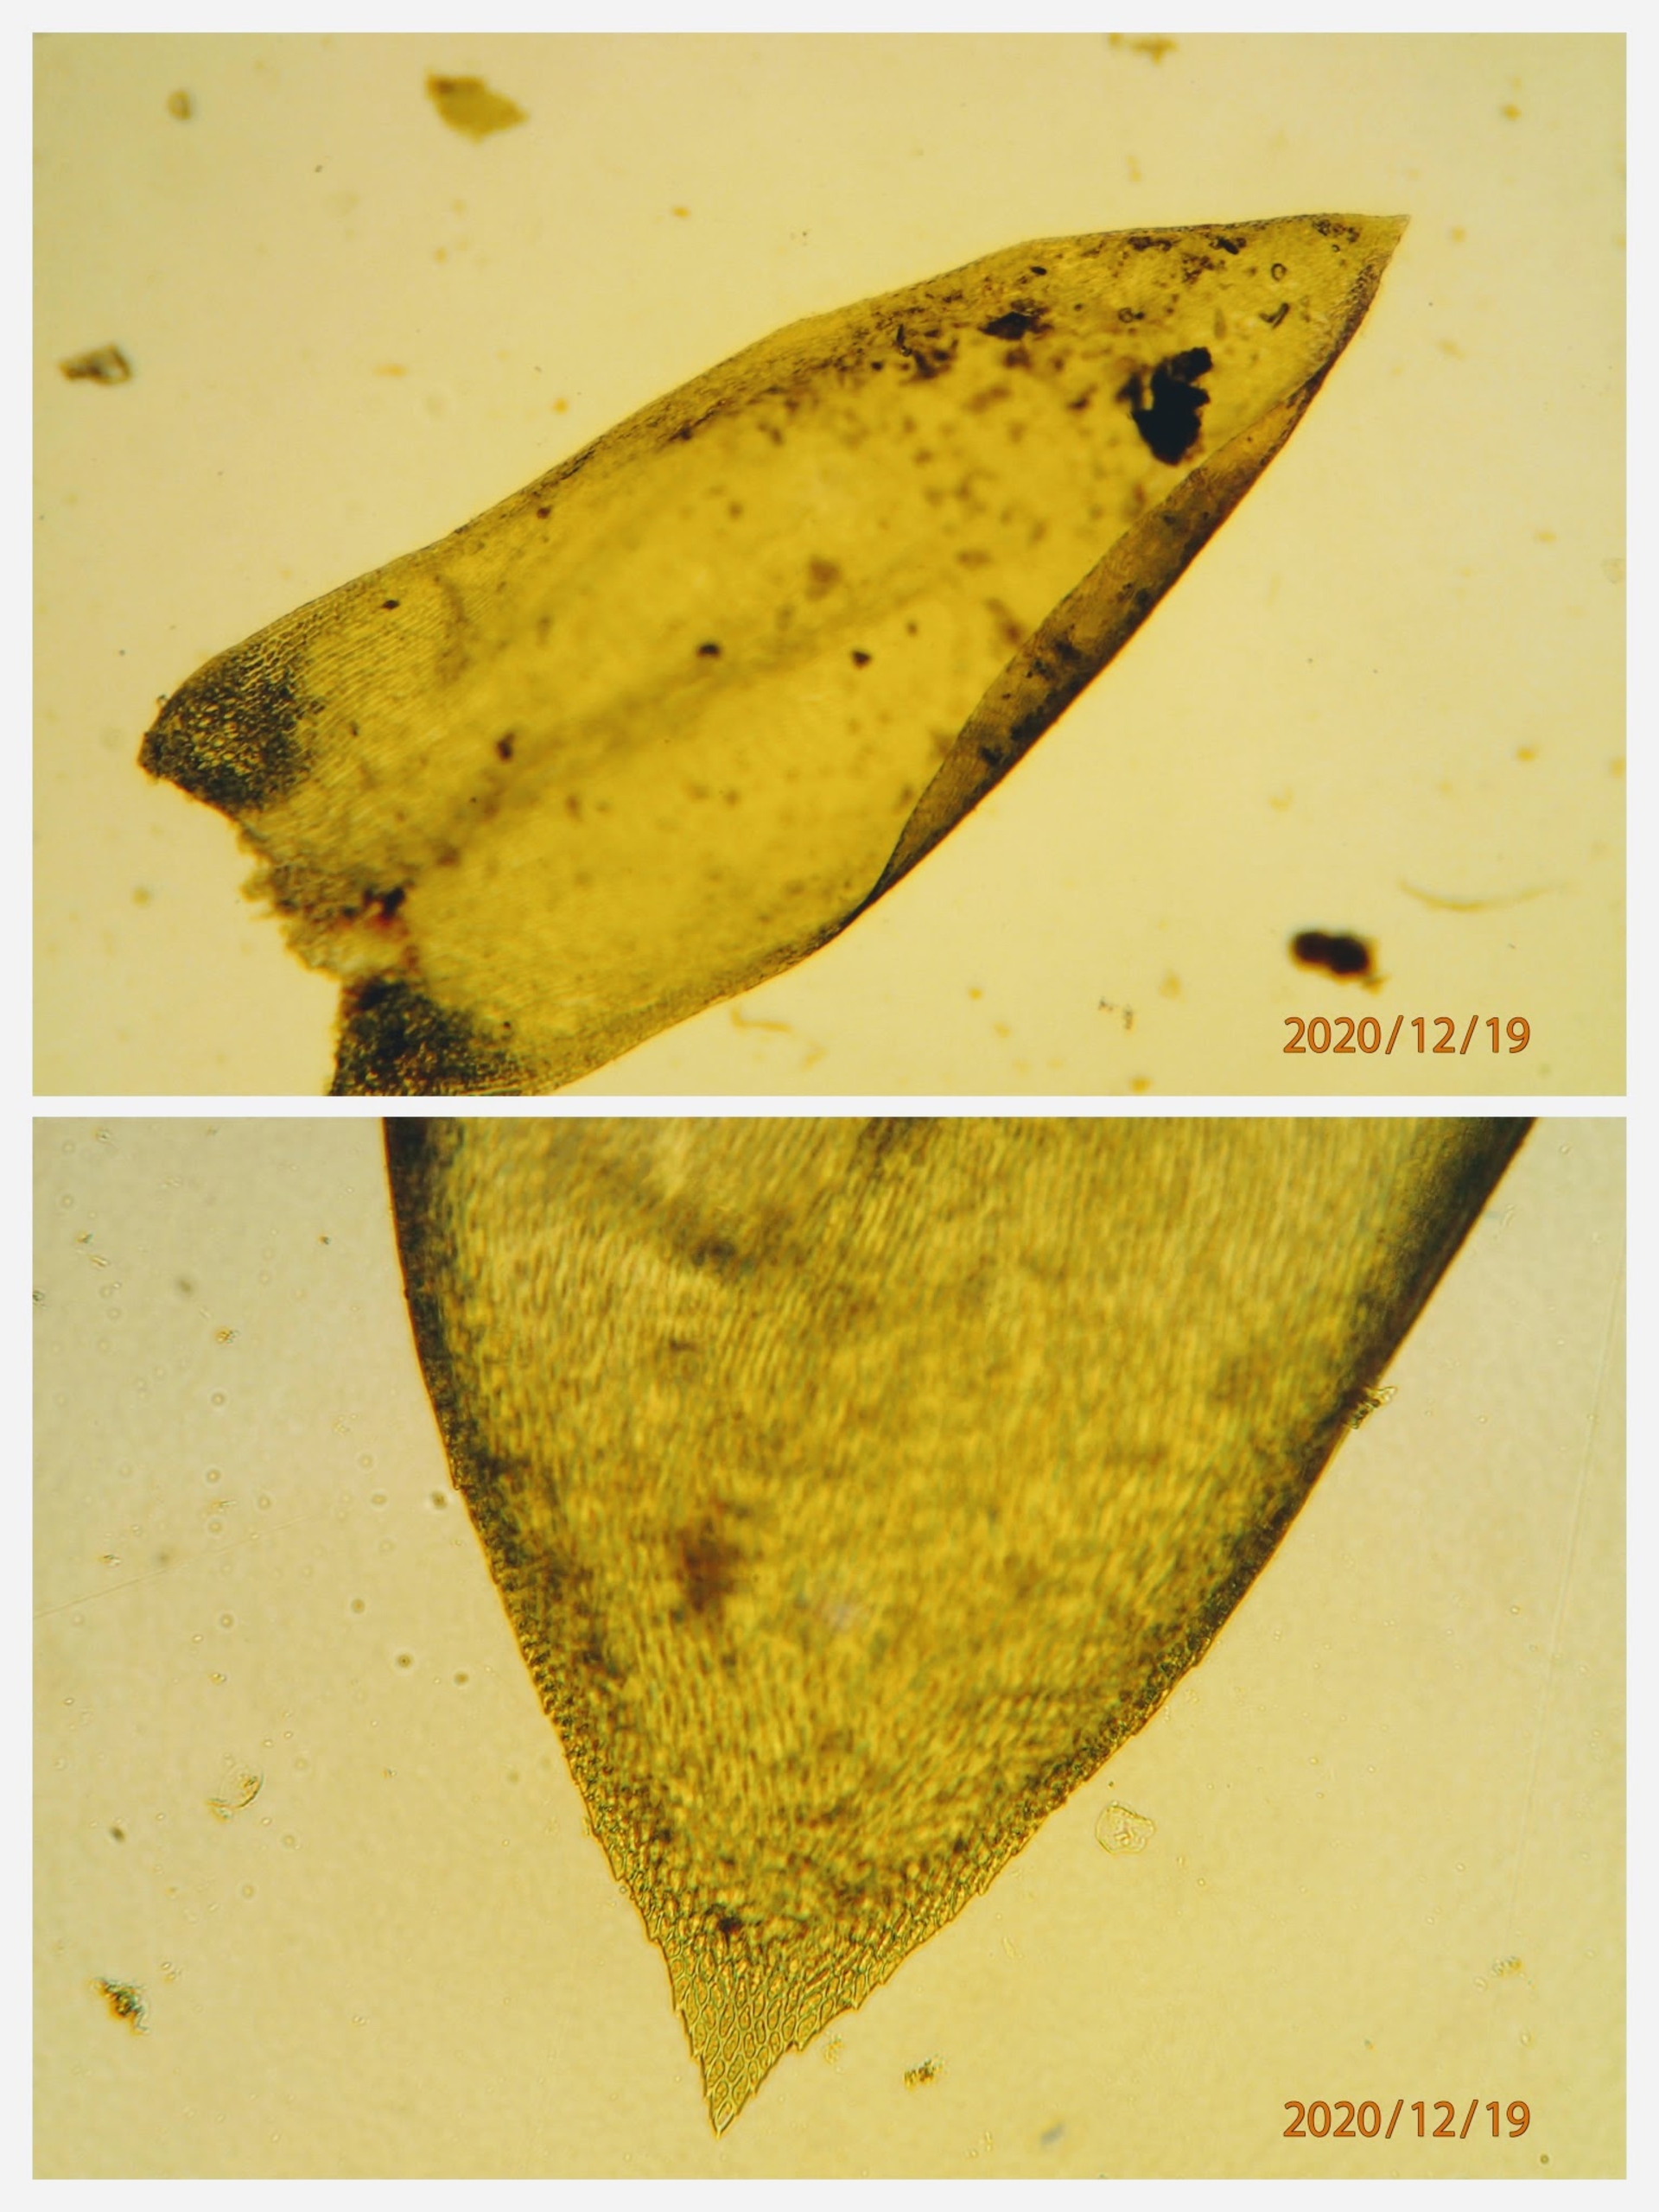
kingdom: Plantae
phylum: Bryophyta
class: Bryopsida
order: Hypnales
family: Lembophyllaceae
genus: Isothecium
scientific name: Isothecium alopecuroides
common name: Stor stammemos
